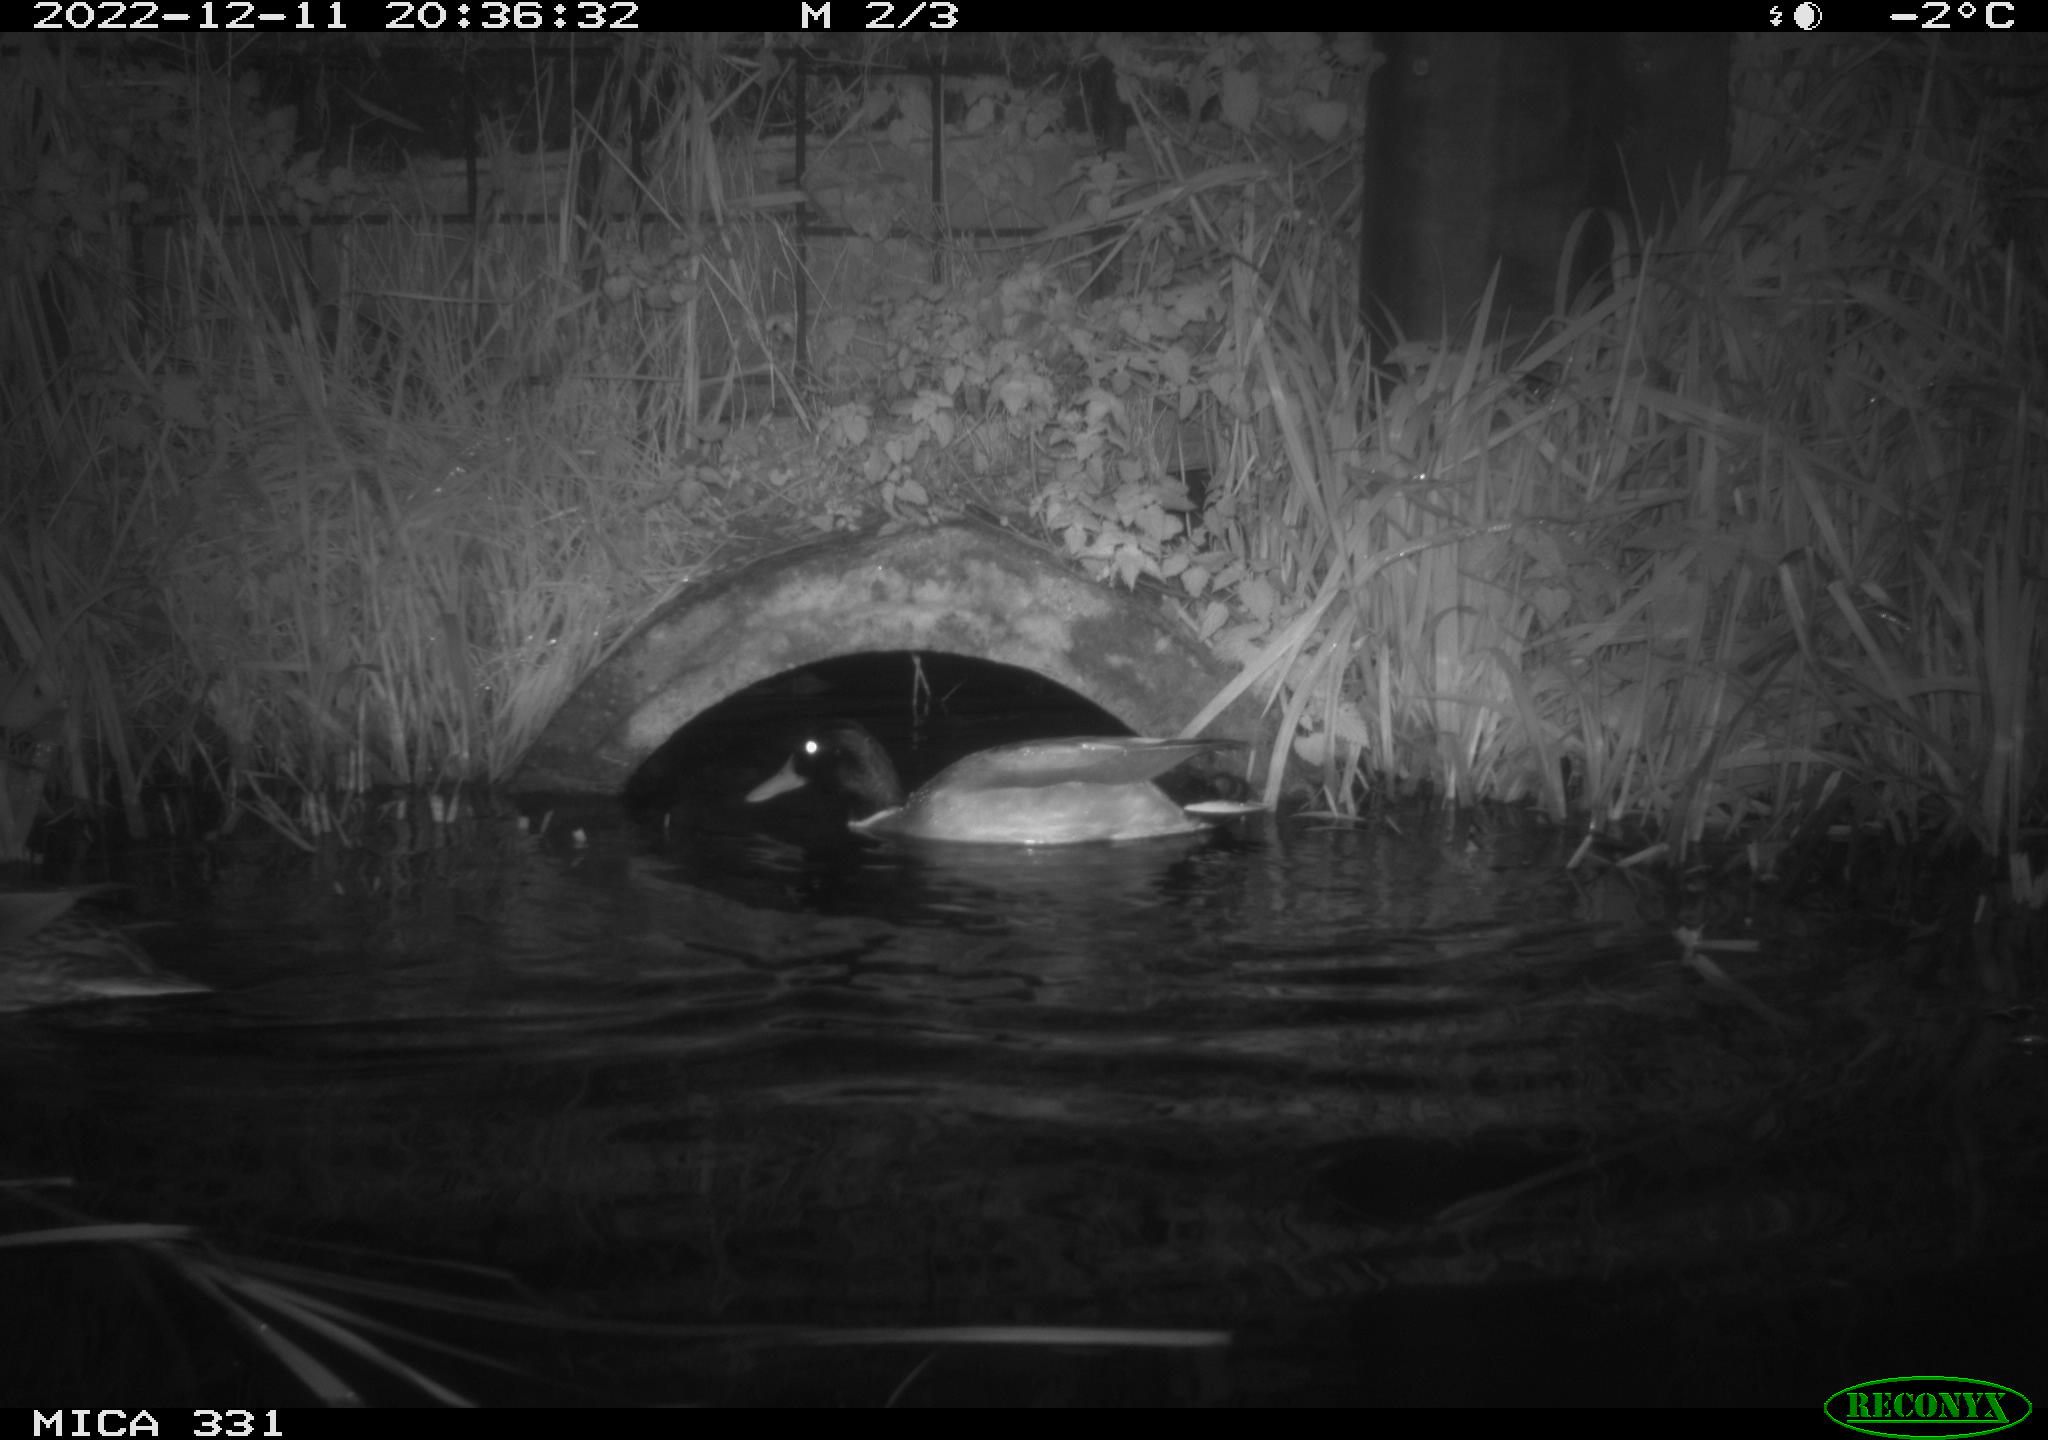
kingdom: Animalia
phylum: Chordata
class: Aves
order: Anseriformes
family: Anatidae
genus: Anas
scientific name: Anas
